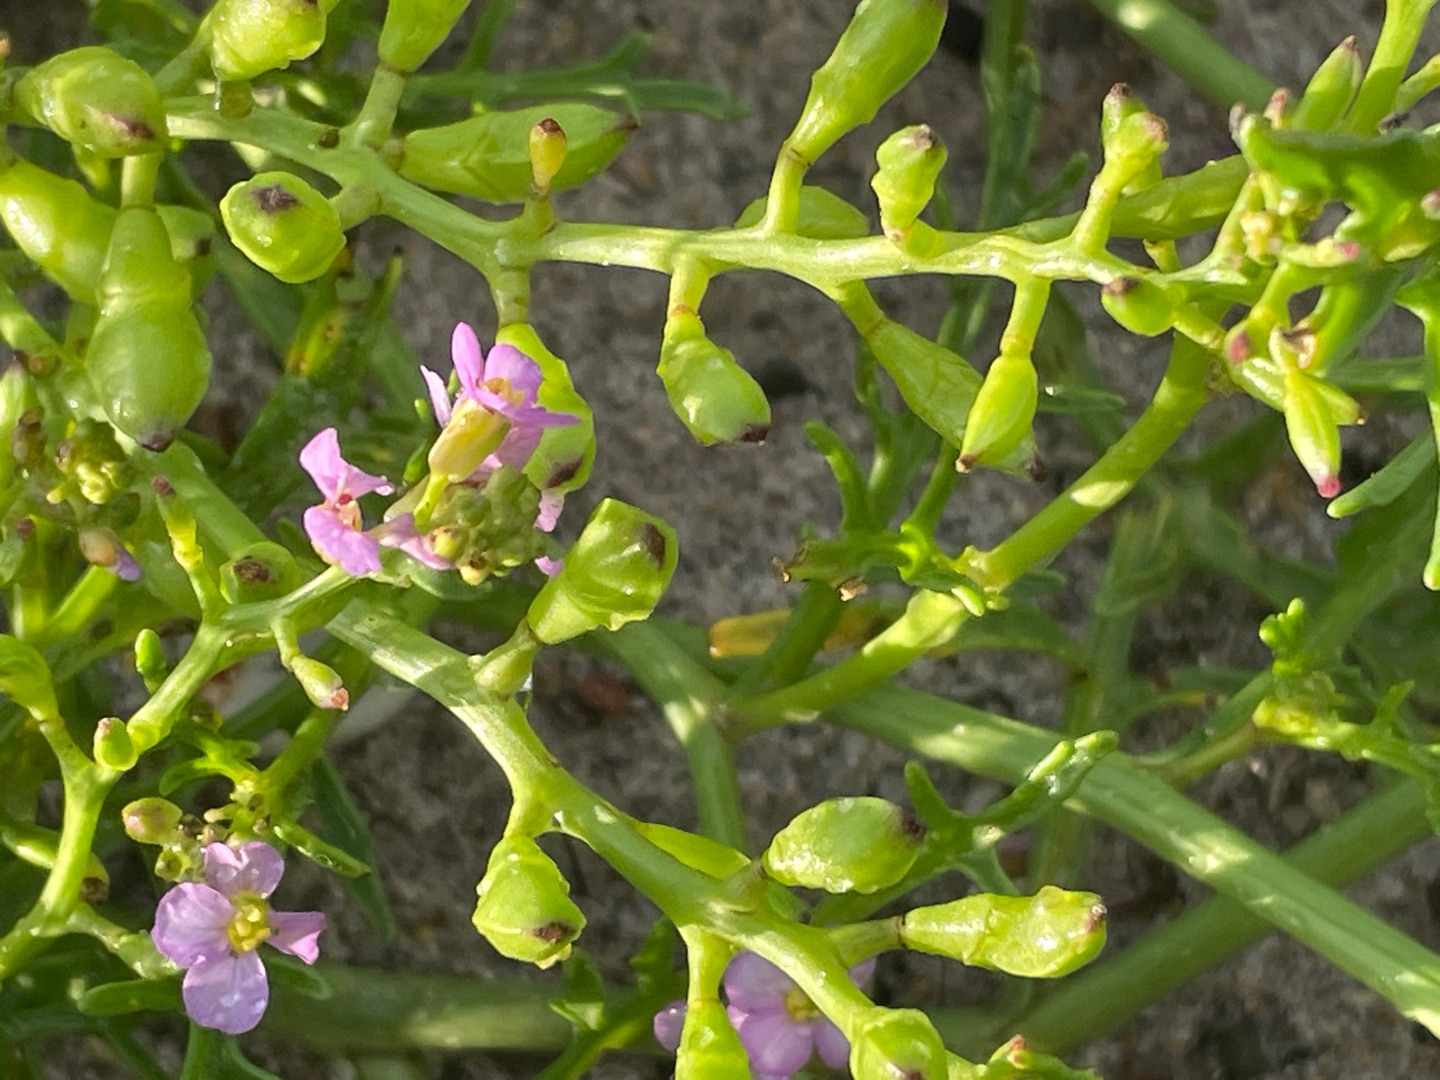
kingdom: Plantae
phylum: Tracheophyta
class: Magnoliopsida
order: Brassicales
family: Brassicaceae
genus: Cakile
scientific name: Cakile maritima
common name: Strandsennep
